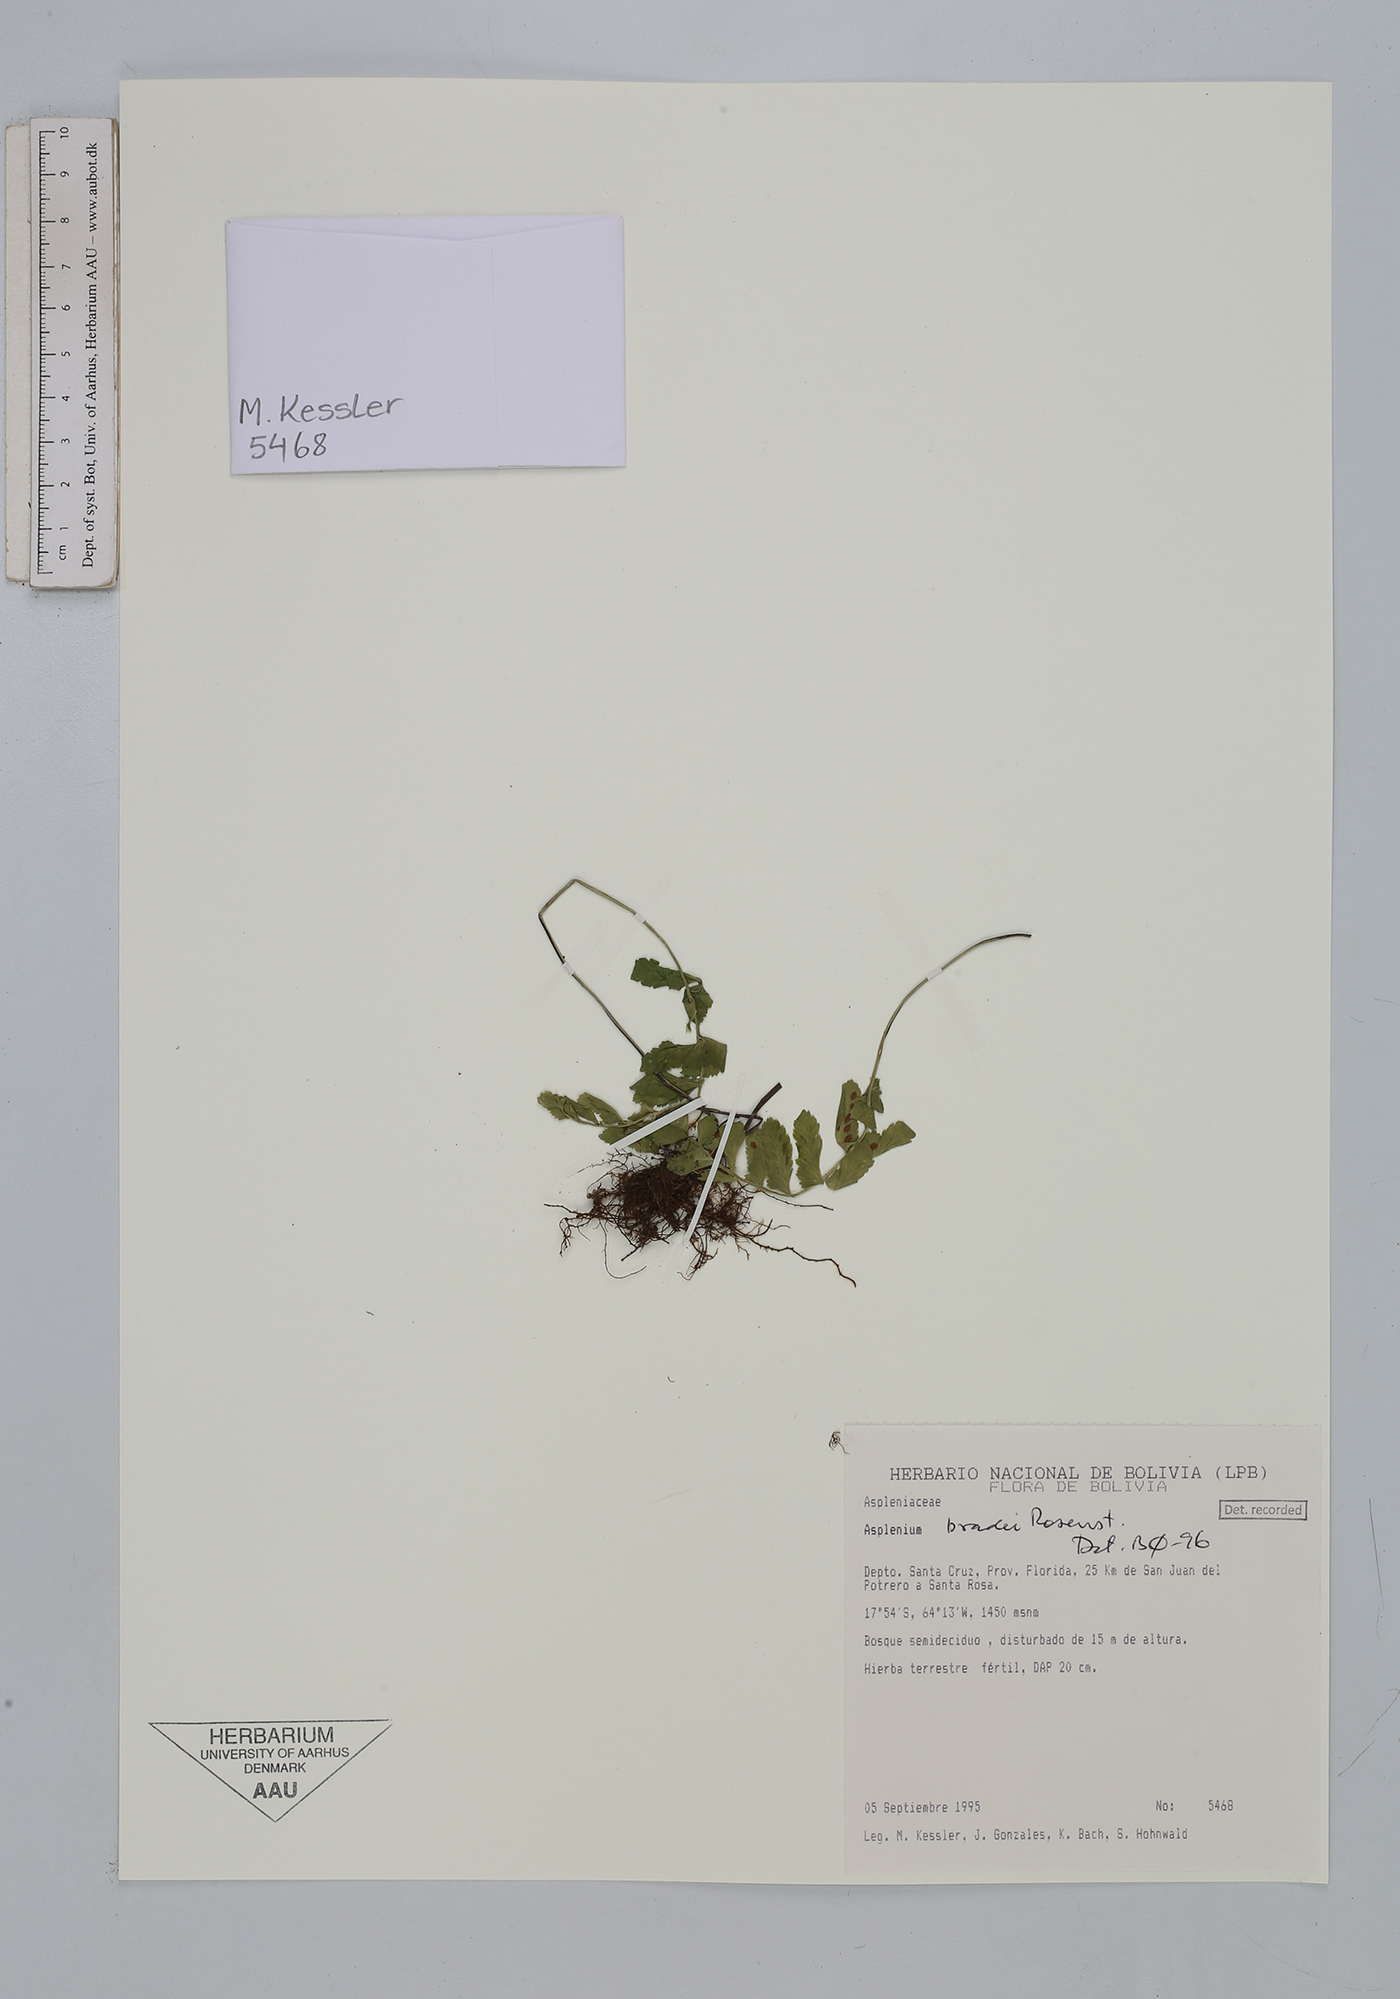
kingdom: Plantae
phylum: Tracheophyta
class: Polypodiopsida
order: Polypodiales
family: Aspleniaceae
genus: Asplenium
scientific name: Asplenium bradei
